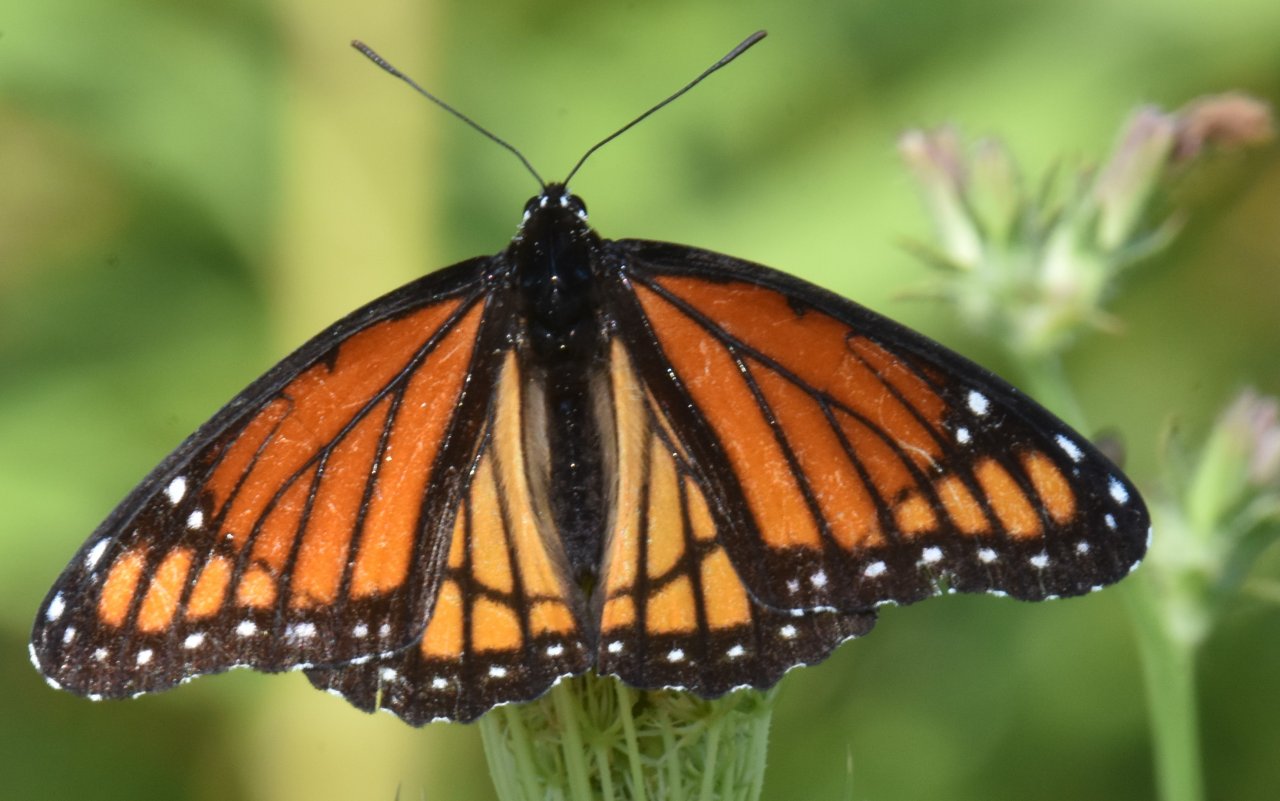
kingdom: Animalia
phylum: Arthropoda
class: Insecta
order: Lepidoptera
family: Nymphalidae
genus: Limenitis
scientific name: Limenitis archippus
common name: Viceroy
